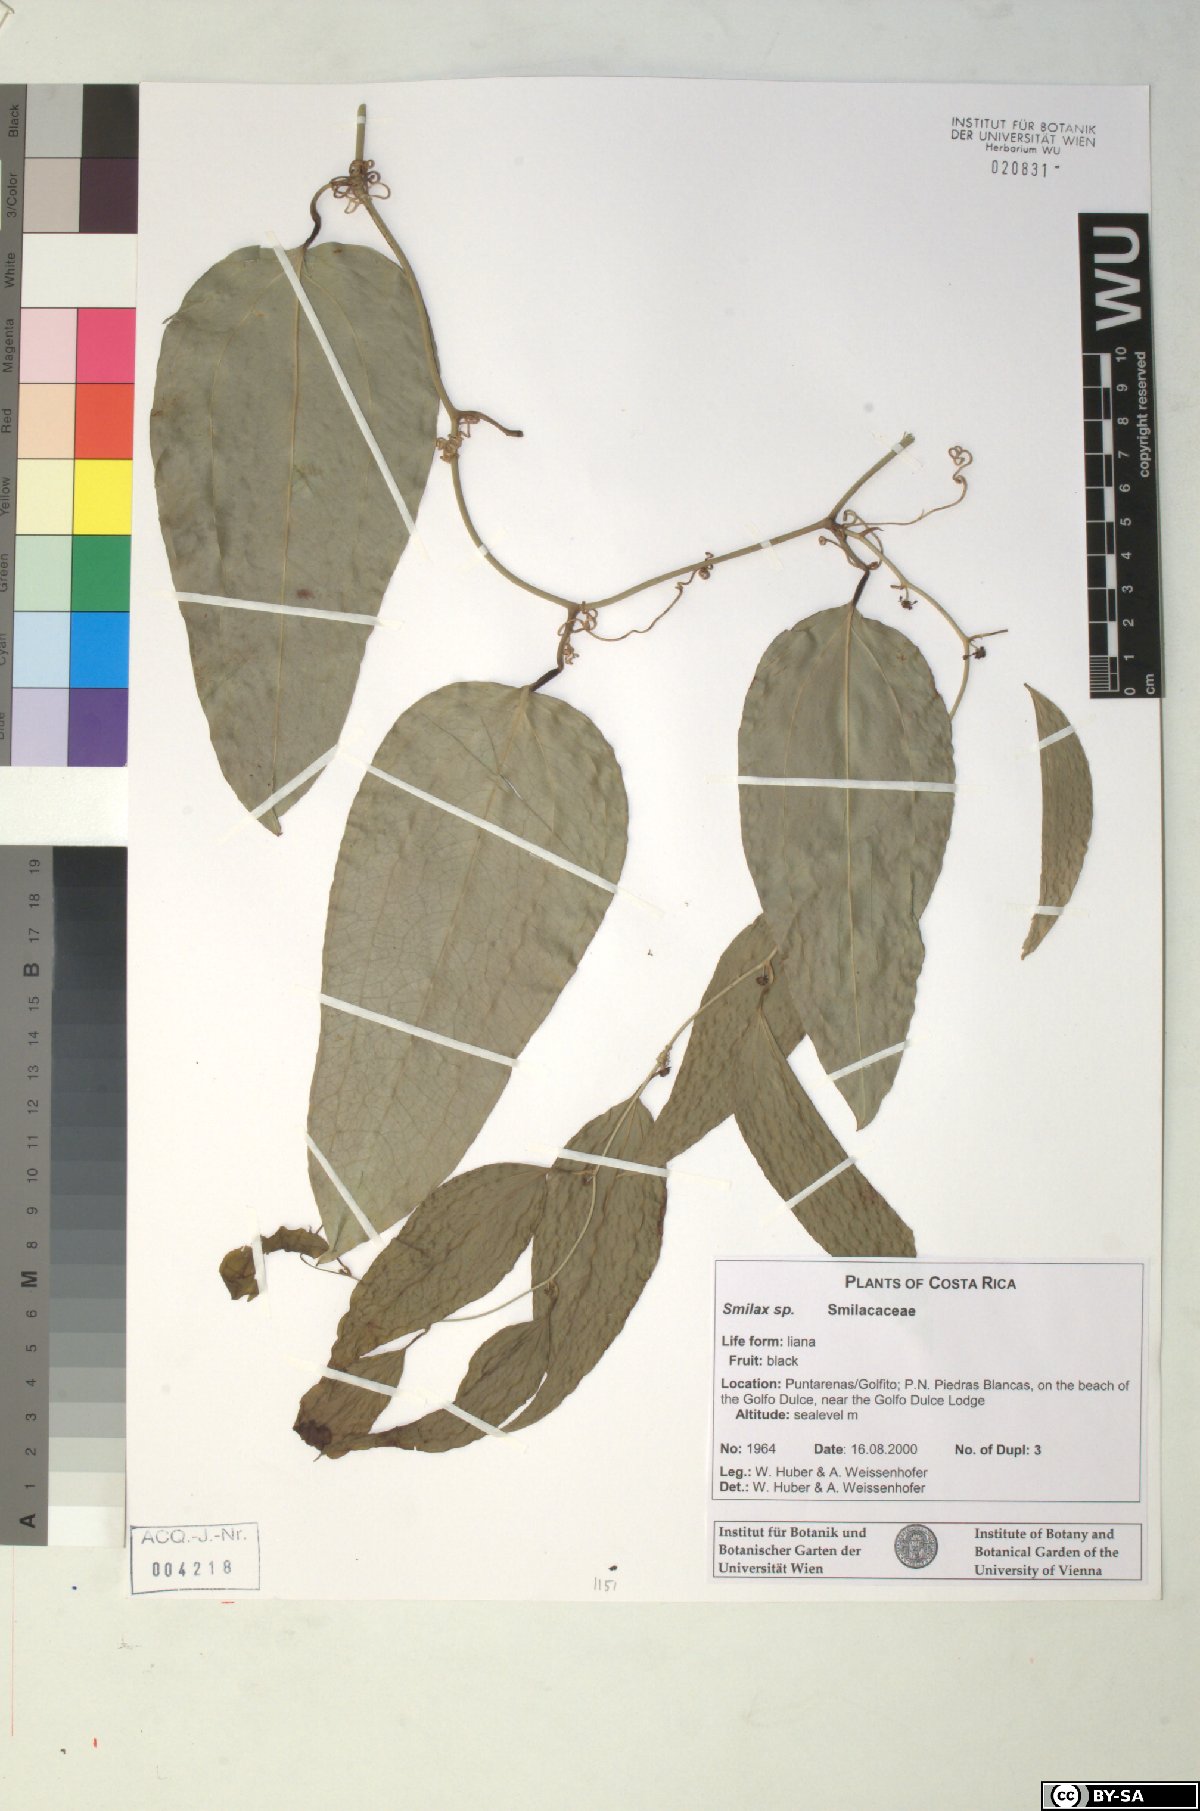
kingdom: Plantae
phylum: Tracheophyta
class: Liliopsida
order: Liliales
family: Smilacaceae
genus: Smilax
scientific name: Smilax spinosa
